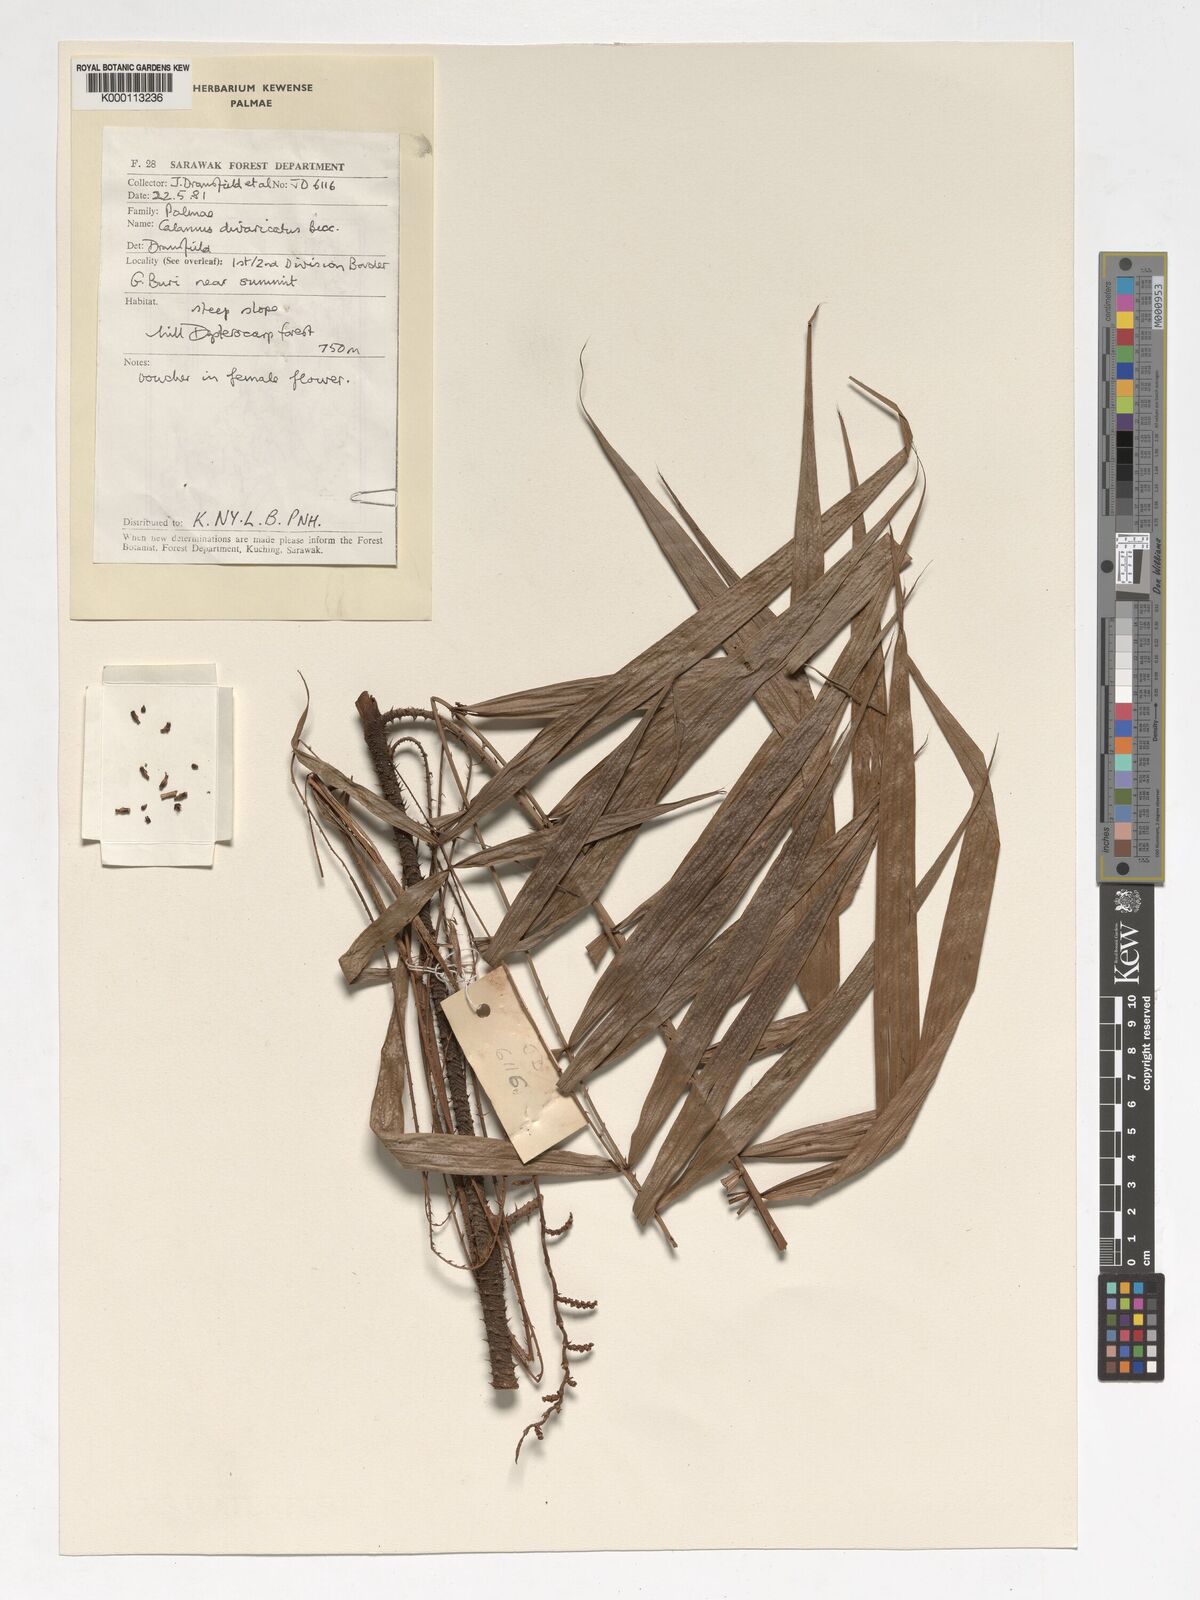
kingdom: Plantae
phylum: Tracheophyta
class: Liliopsida
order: Arecales
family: Arecaceae
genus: Calamus
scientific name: Calamus divaricatus
